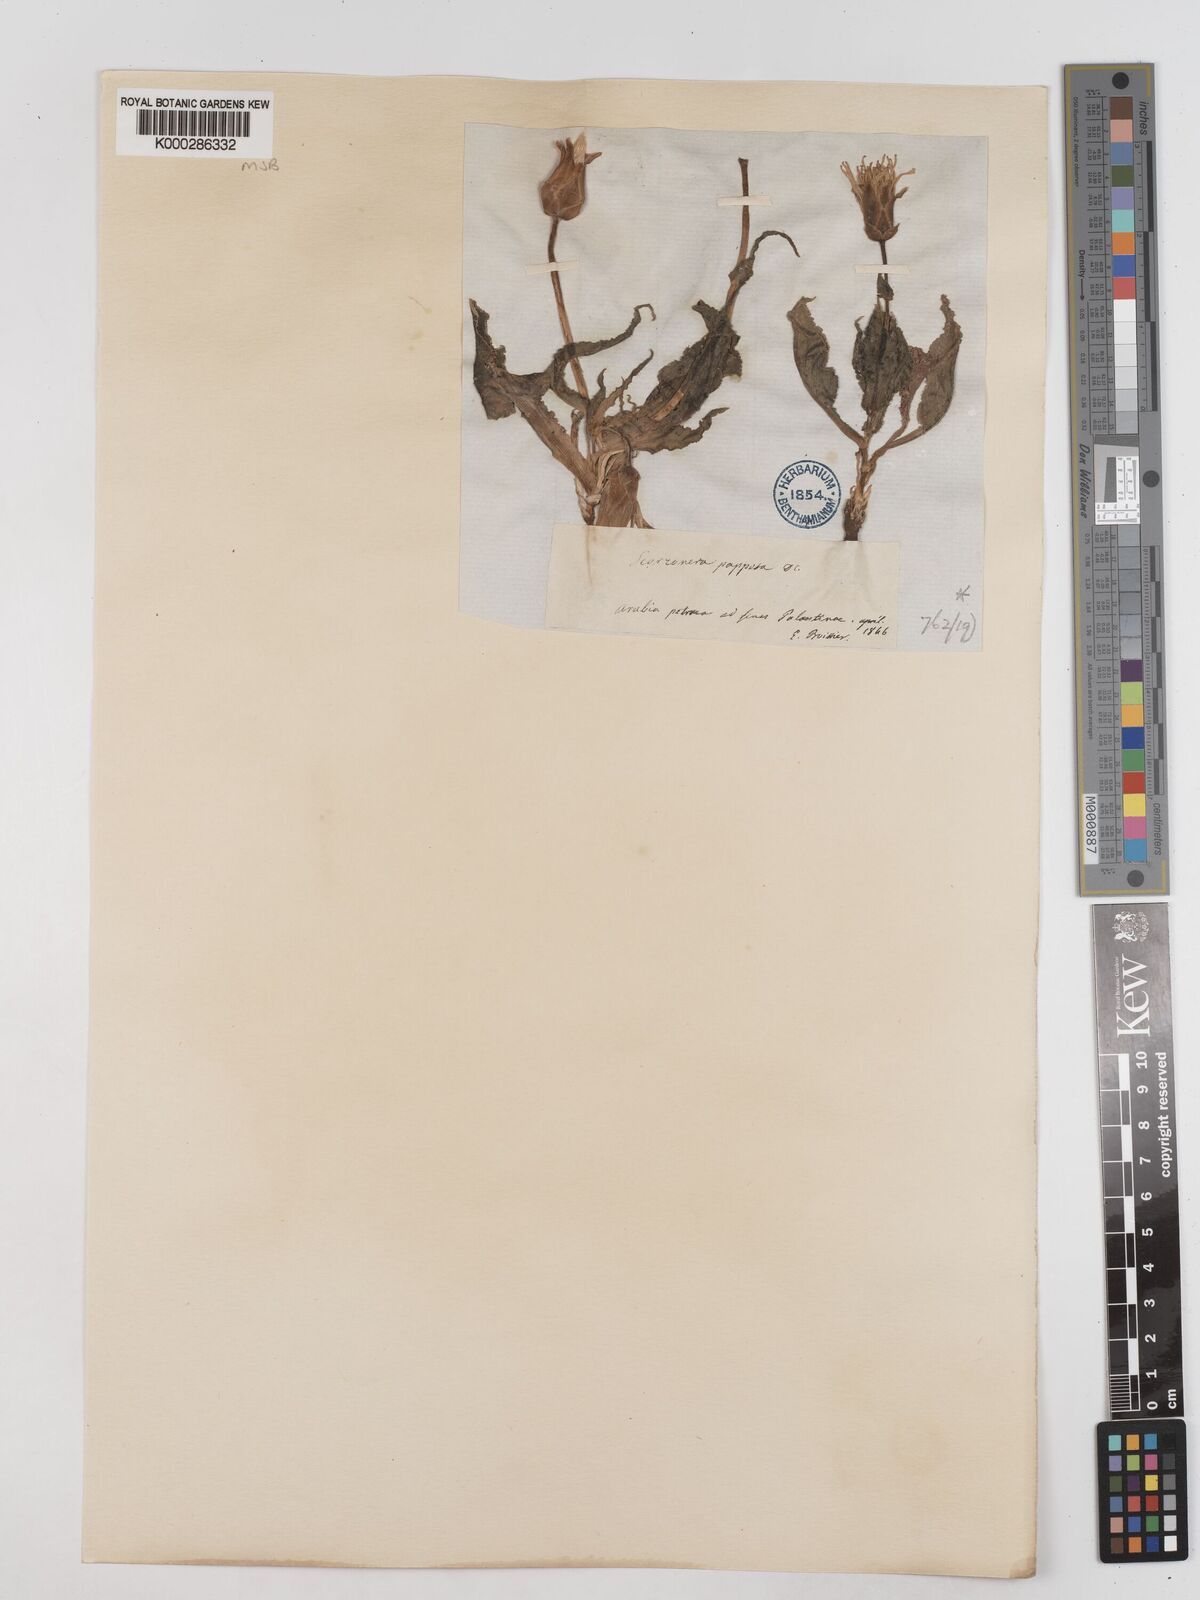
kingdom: Plantae
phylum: Tracheophyta
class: Magnoliopsida
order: Asterales
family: Asteraceae
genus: Pseudopodospermum
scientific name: Pseudopodospermum papposum
